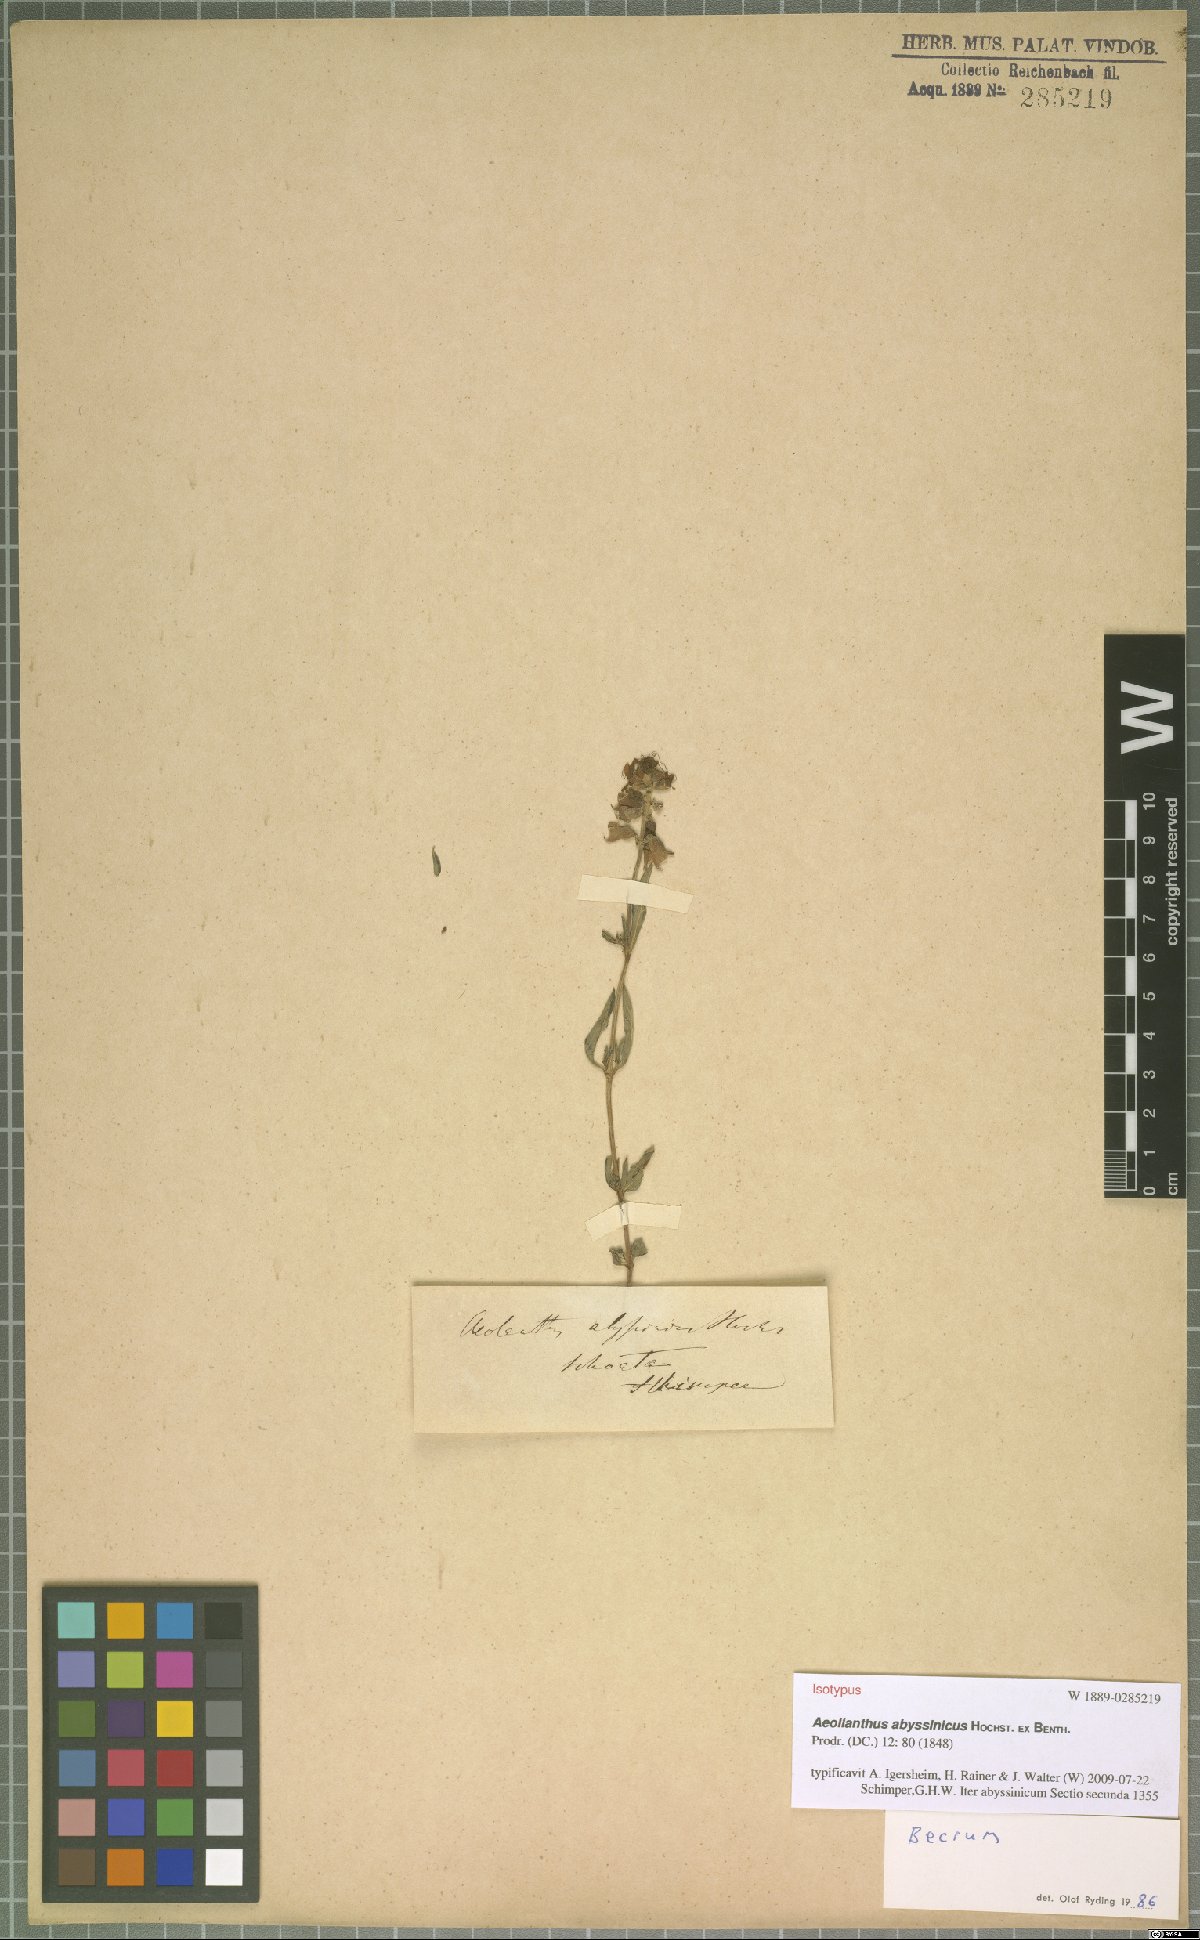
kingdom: Plantae
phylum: Tracheophyta
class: Magnoliopsida
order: Lamiales
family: Lamiaceae
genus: Aeollanthus
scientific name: Aeollanthus abyssinicus
